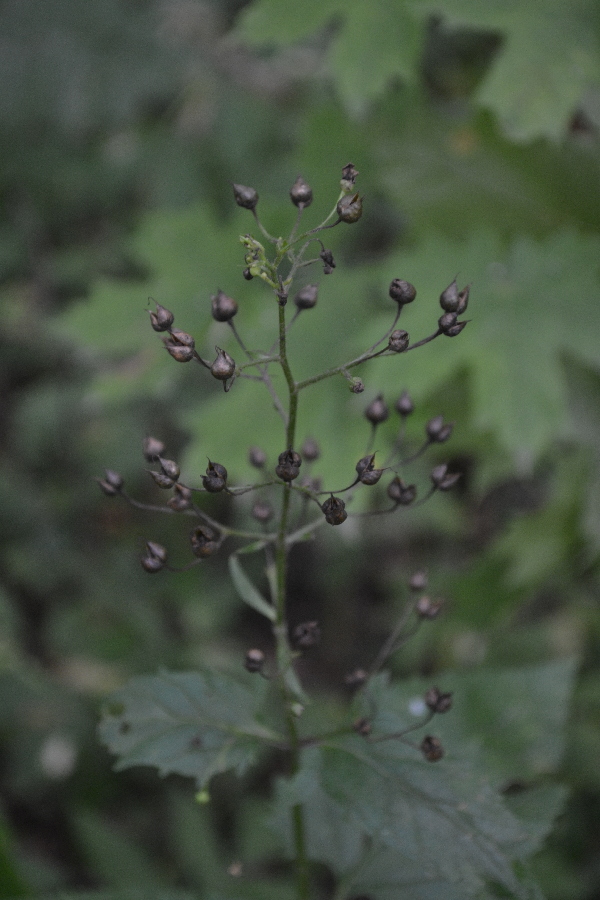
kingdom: Plantae
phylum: Tracheophyta
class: Magnoliopsida
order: Lamiales
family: Scrophulariaceae
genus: Scrophularia
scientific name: Scrophularia nodosa
